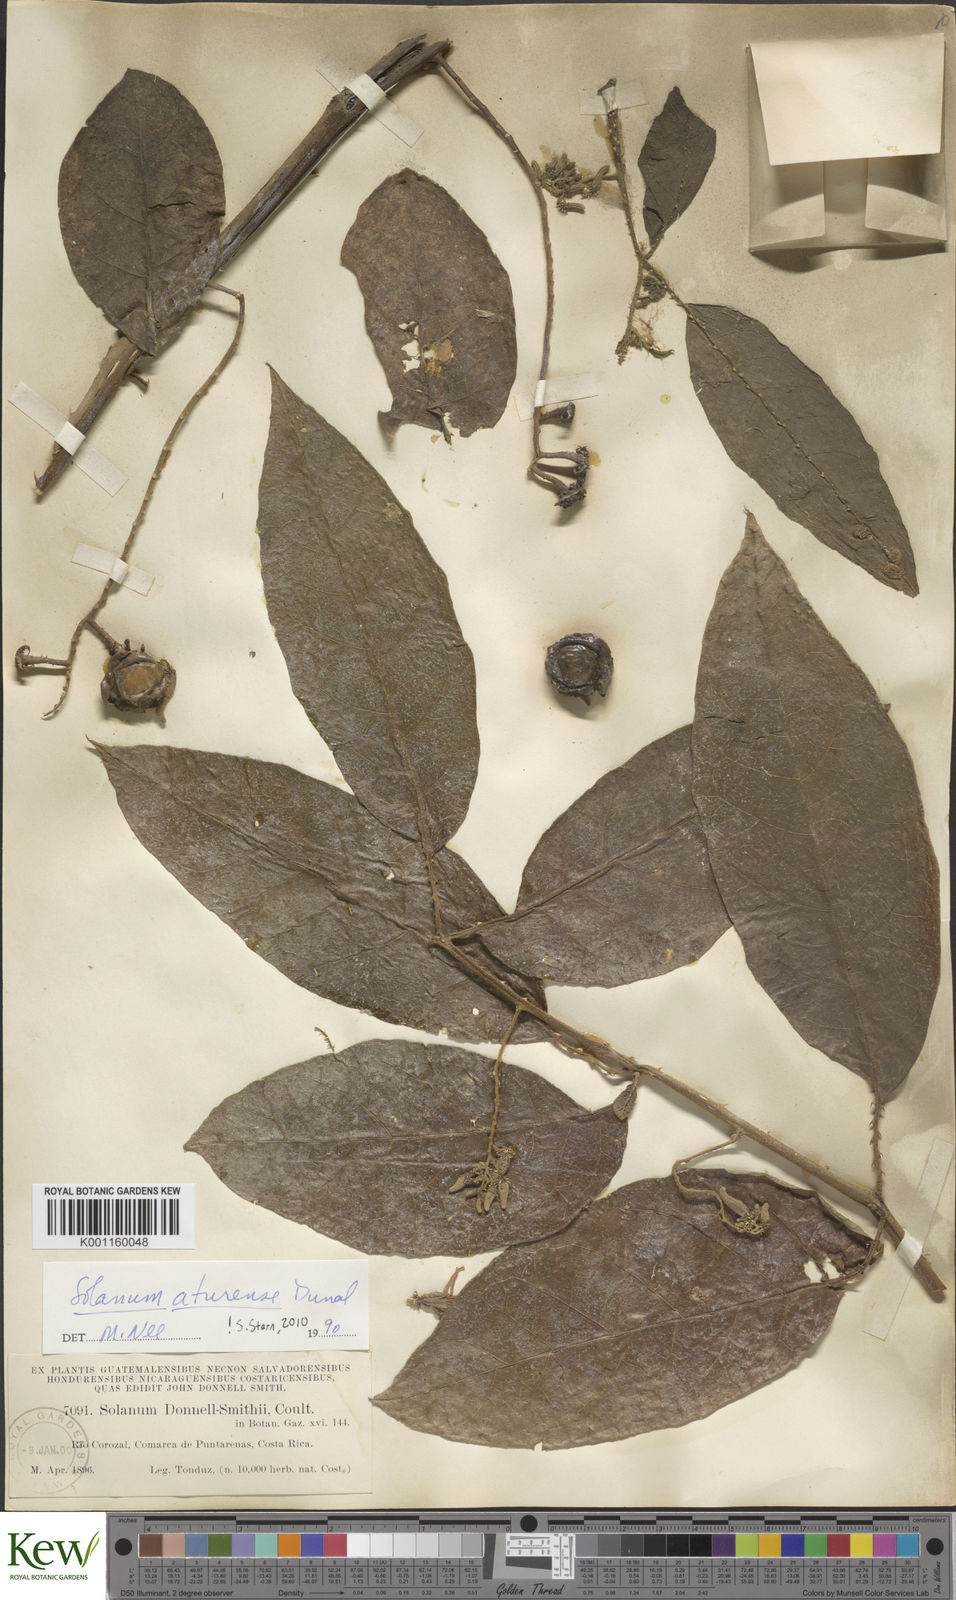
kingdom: Plantae
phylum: Tracheophyta
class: Magnoliopsida
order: Solanales
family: Solanaceae
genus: Solanum
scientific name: Solanum aturense
